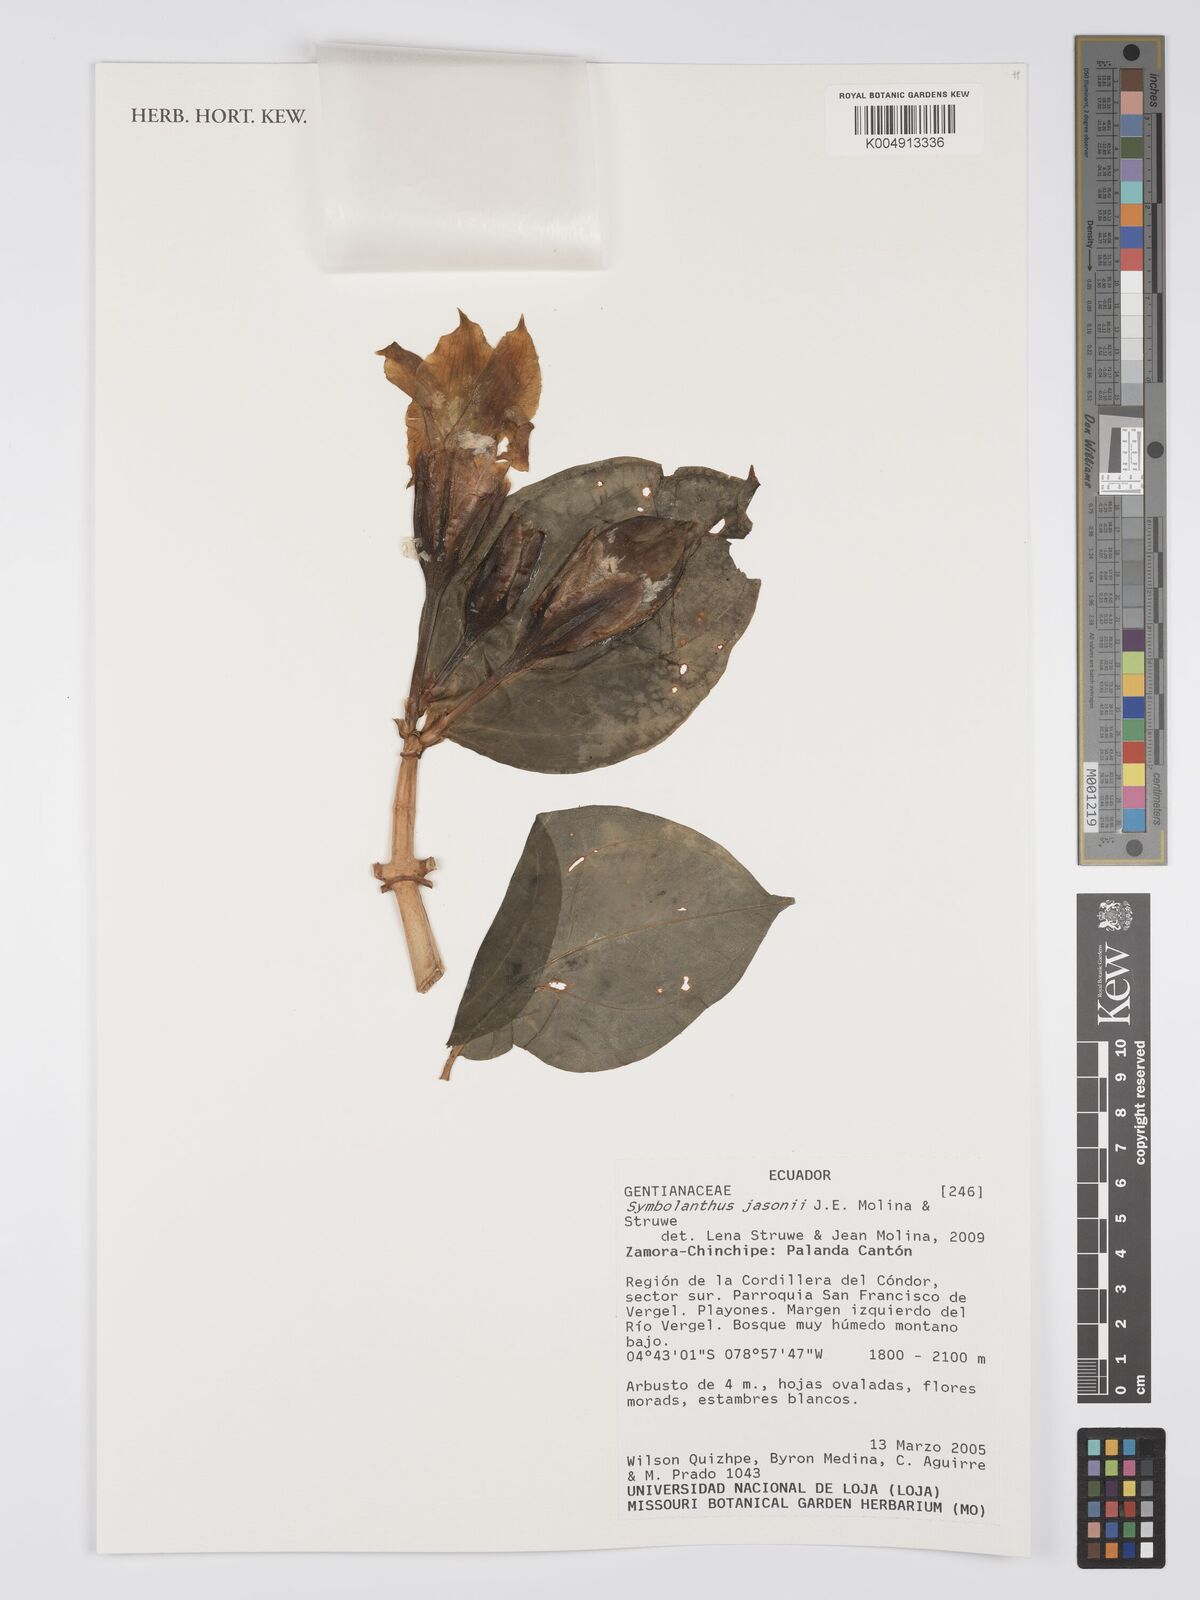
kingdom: Plantae
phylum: Tracheophyta
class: Magnoliopsida
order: Gentianales
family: Gentianaceae
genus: Symbolanthus
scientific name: Symbolanthus jasonii
